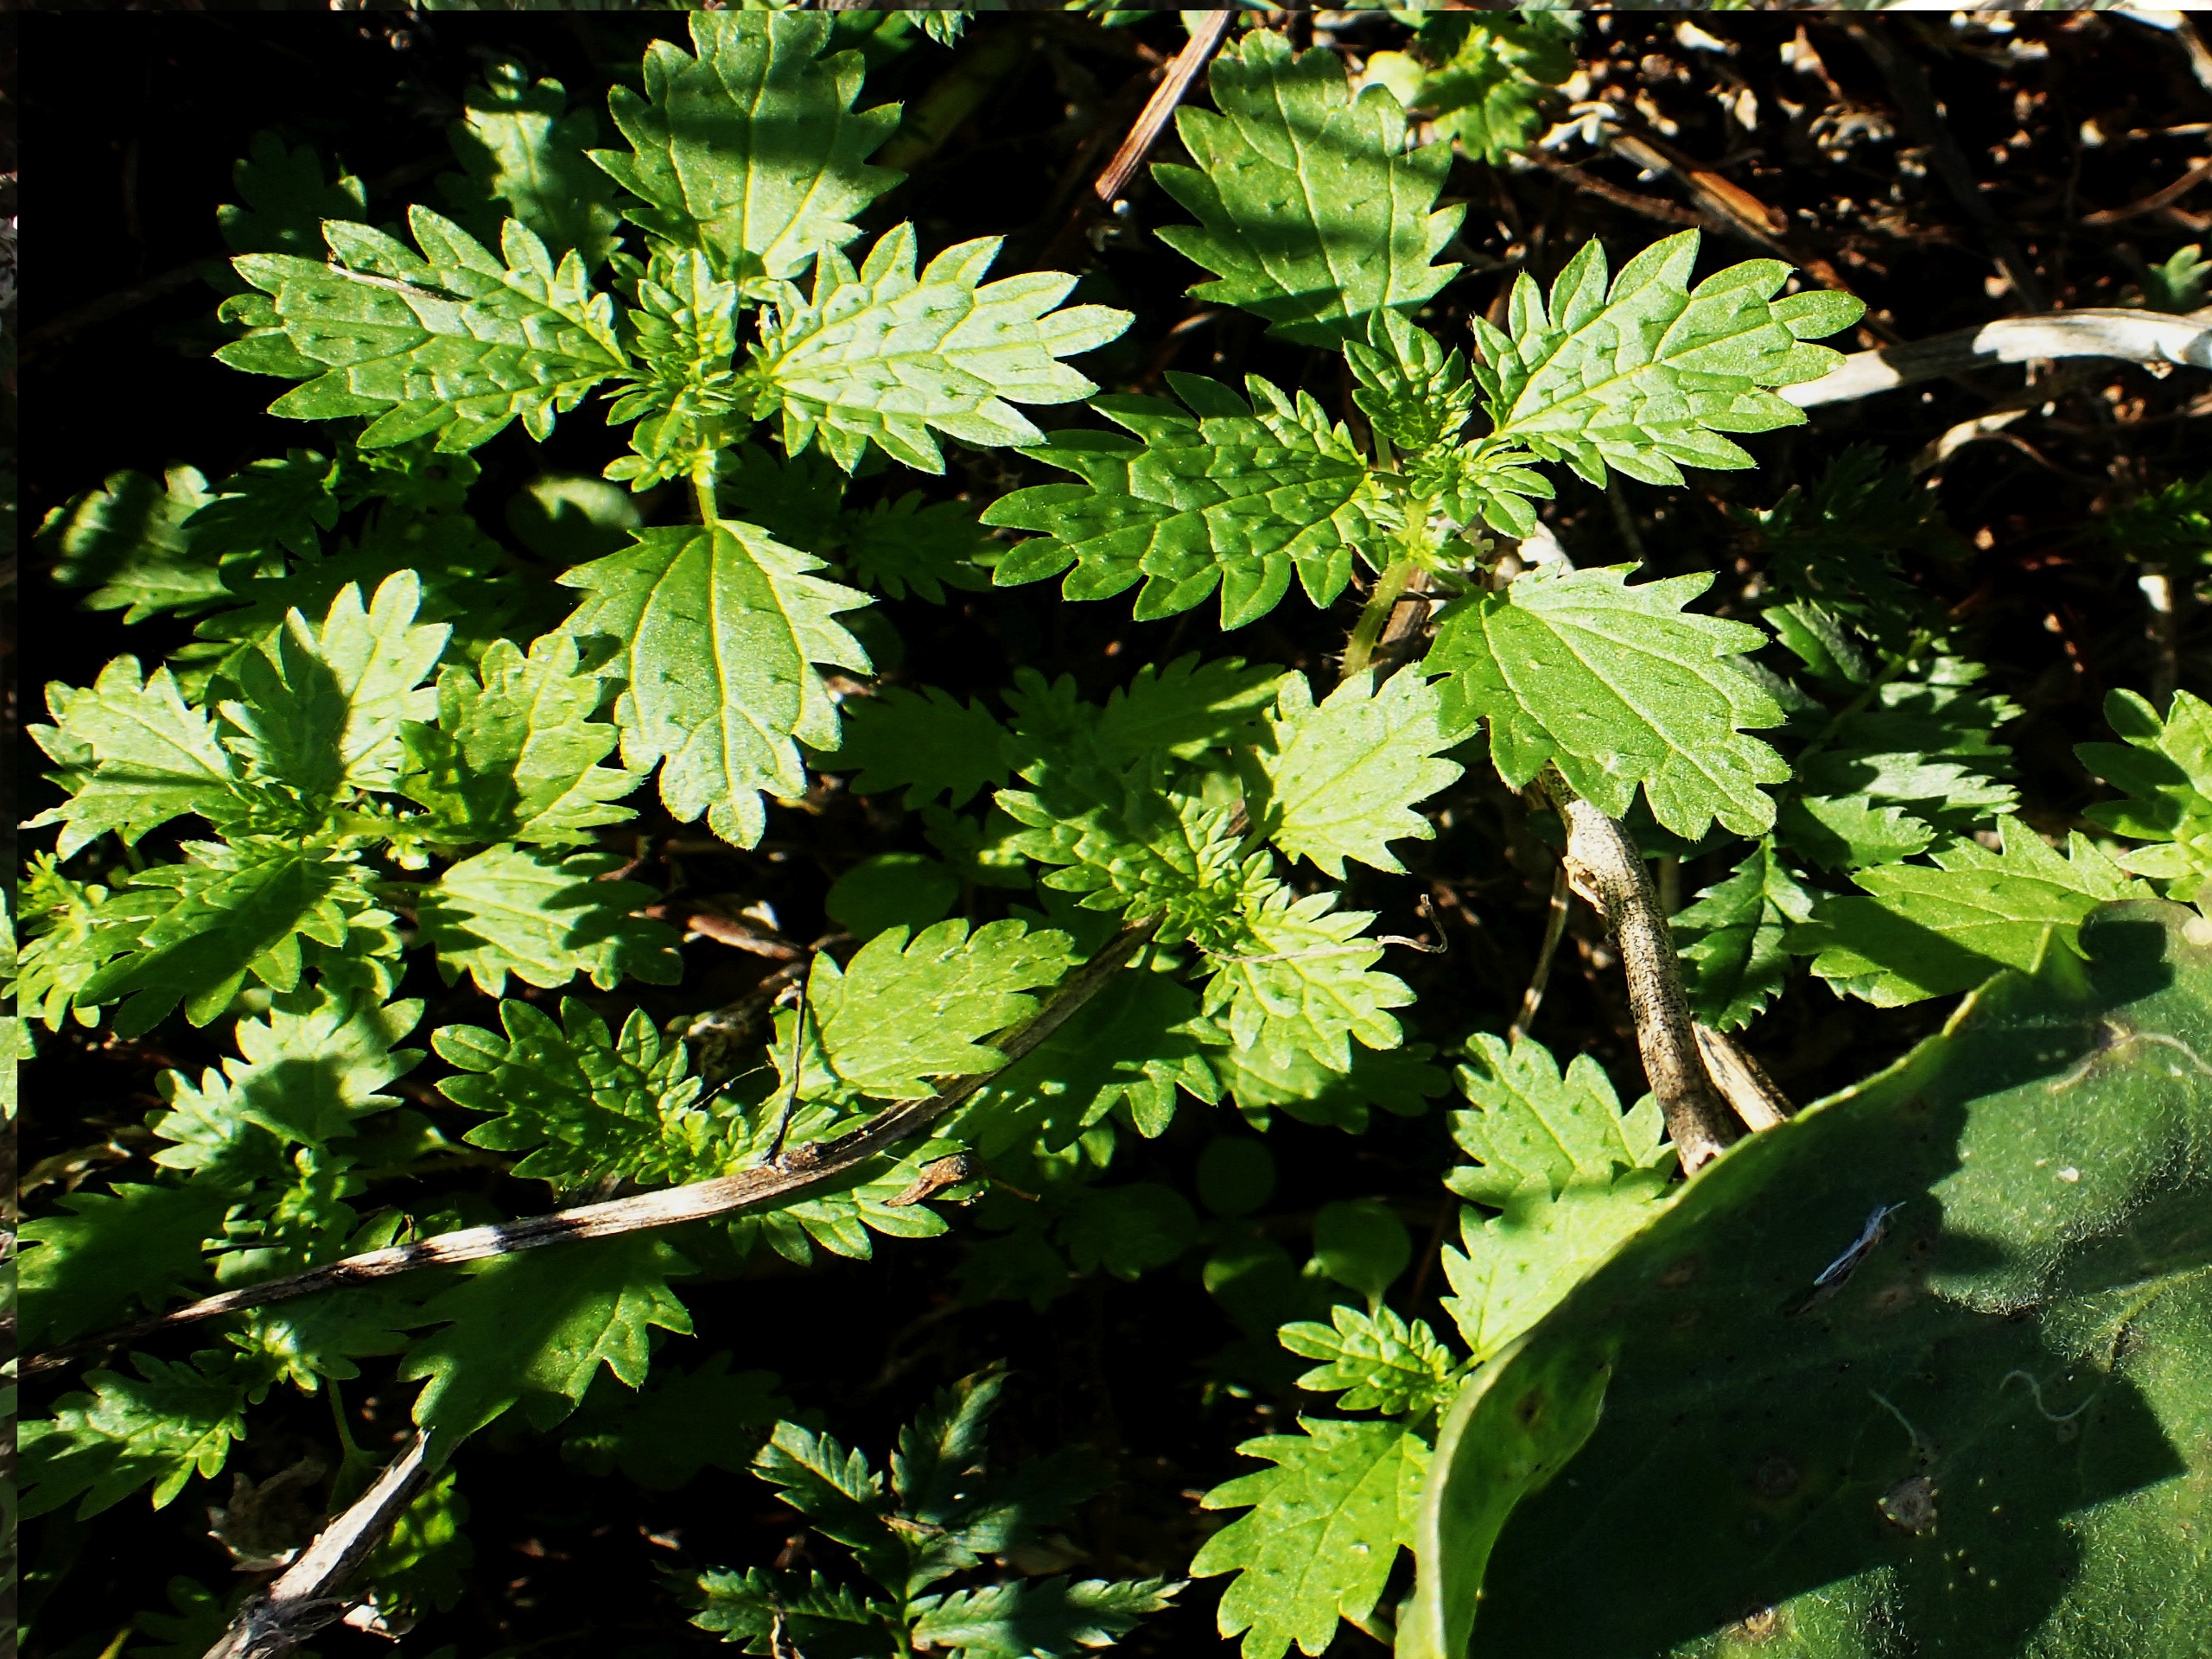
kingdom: Plantae
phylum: Tracheophyta
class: Magnoliopsida
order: Rosales
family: Urticaceae
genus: Urtica
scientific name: Urtica urens
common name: Liden nælde
